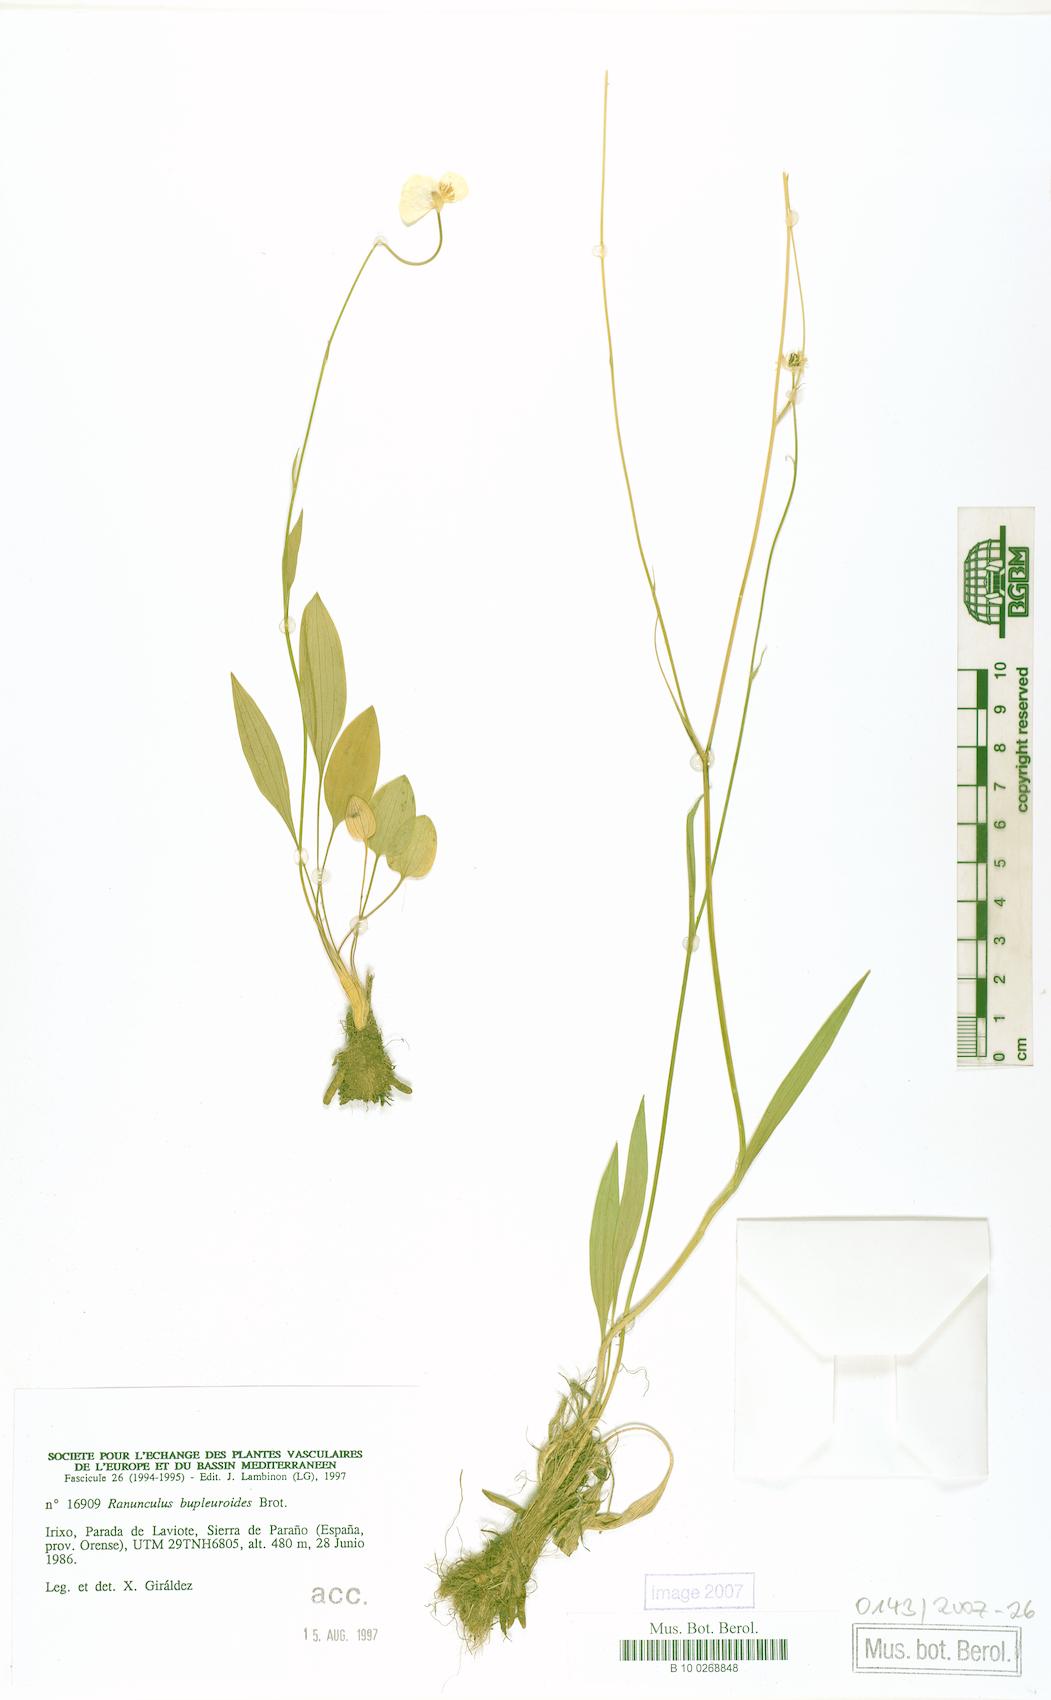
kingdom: Plantae
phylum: Tracheophyta
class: Magnoliopsida
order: Ranunculales
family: Ranunculaceae
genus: Ranunculus
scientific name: Ranunculus bupleuroides
